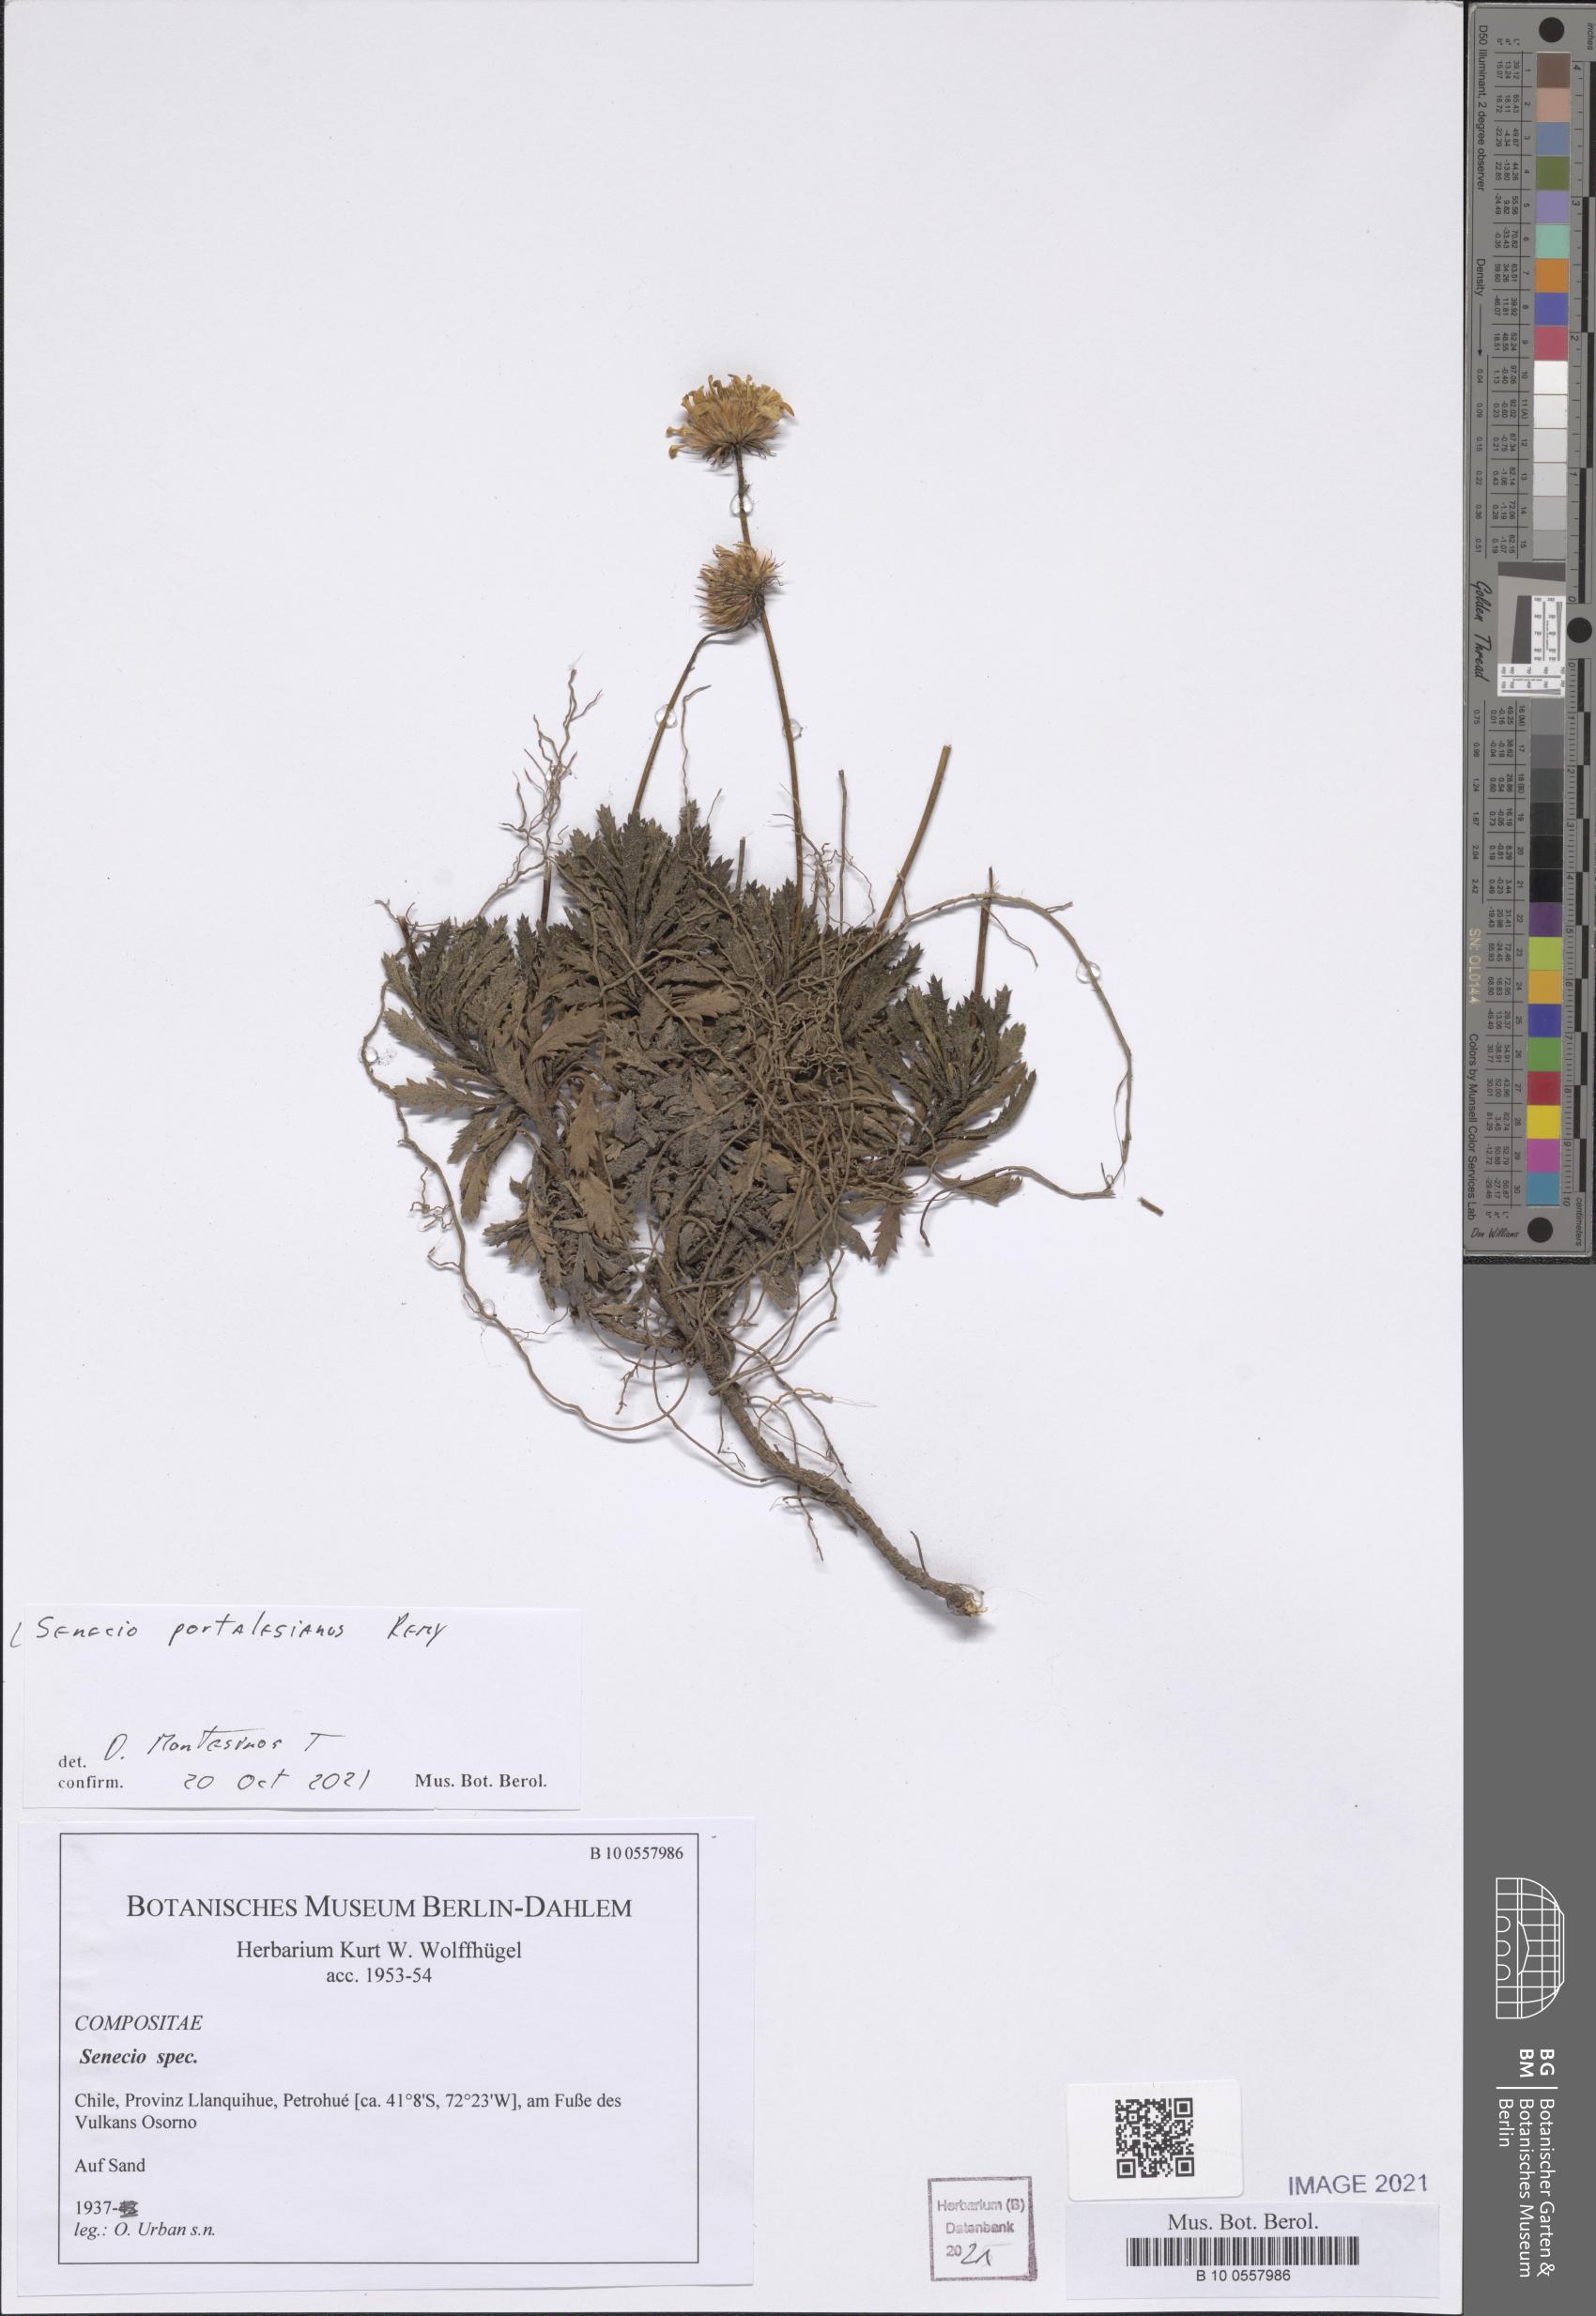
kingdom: Plantae
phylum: Tracheophyta
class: Magnoliopsida
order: Asterales
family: Asteraceae
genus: Senecio
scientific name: Senecio portalesianus
